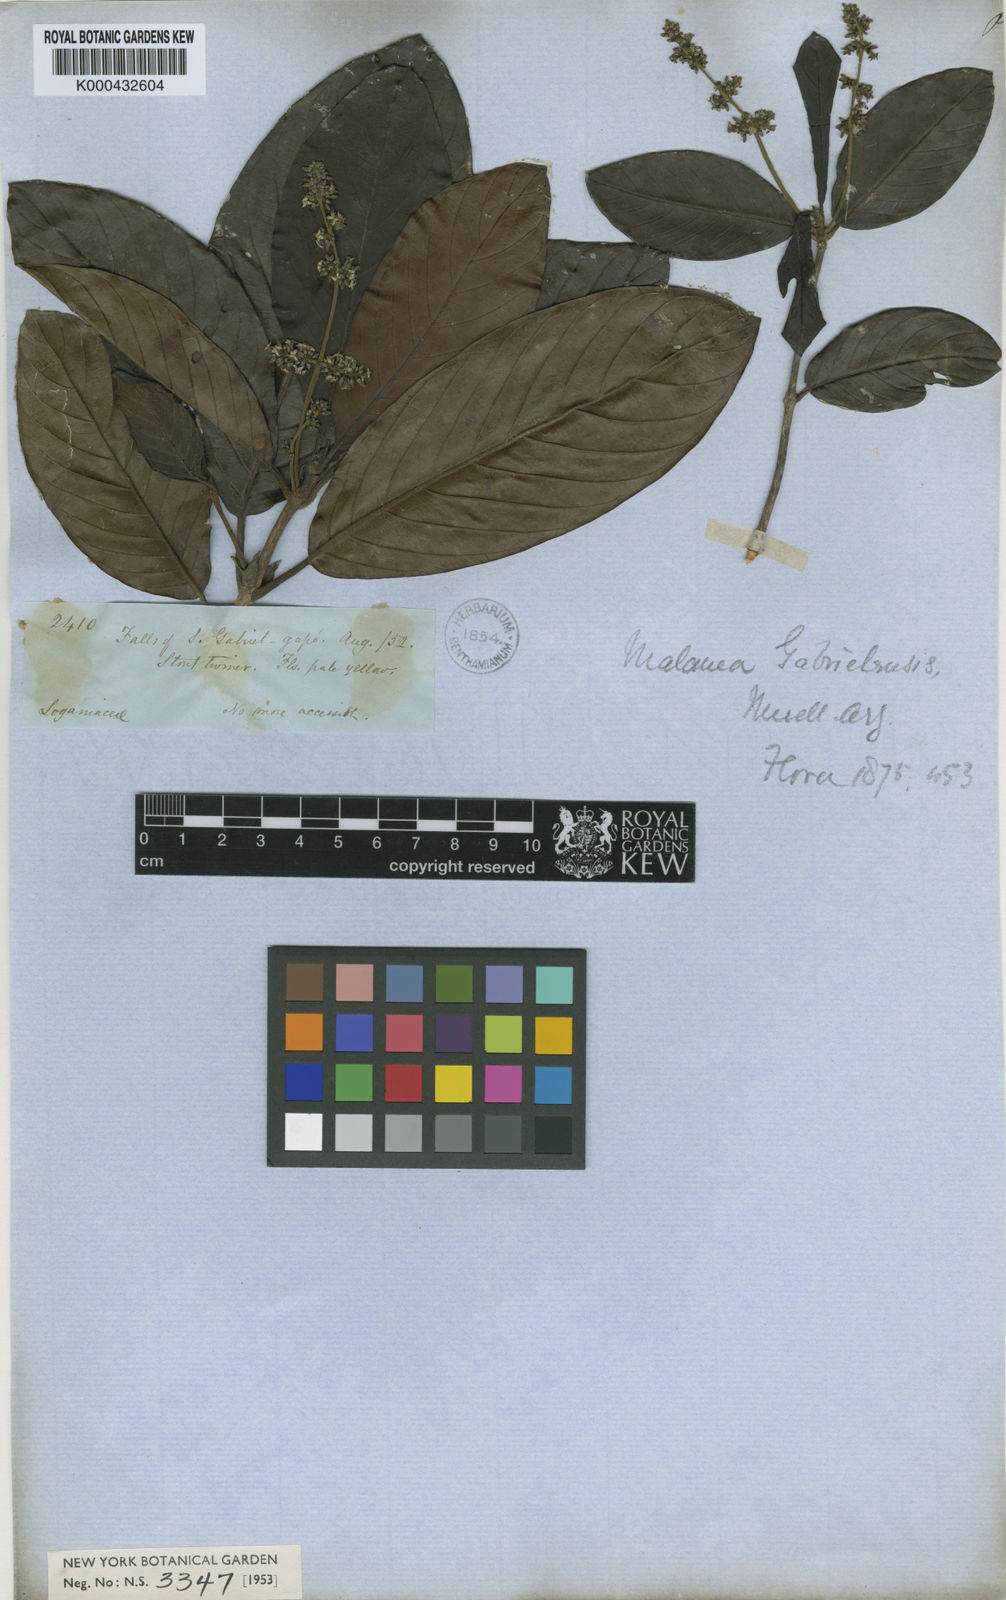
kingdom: Plantae
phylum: Tracheophyta
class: Magnoliopsida
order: Gentianales
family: Rubiaceae
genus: Malanea
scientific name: Malanea
